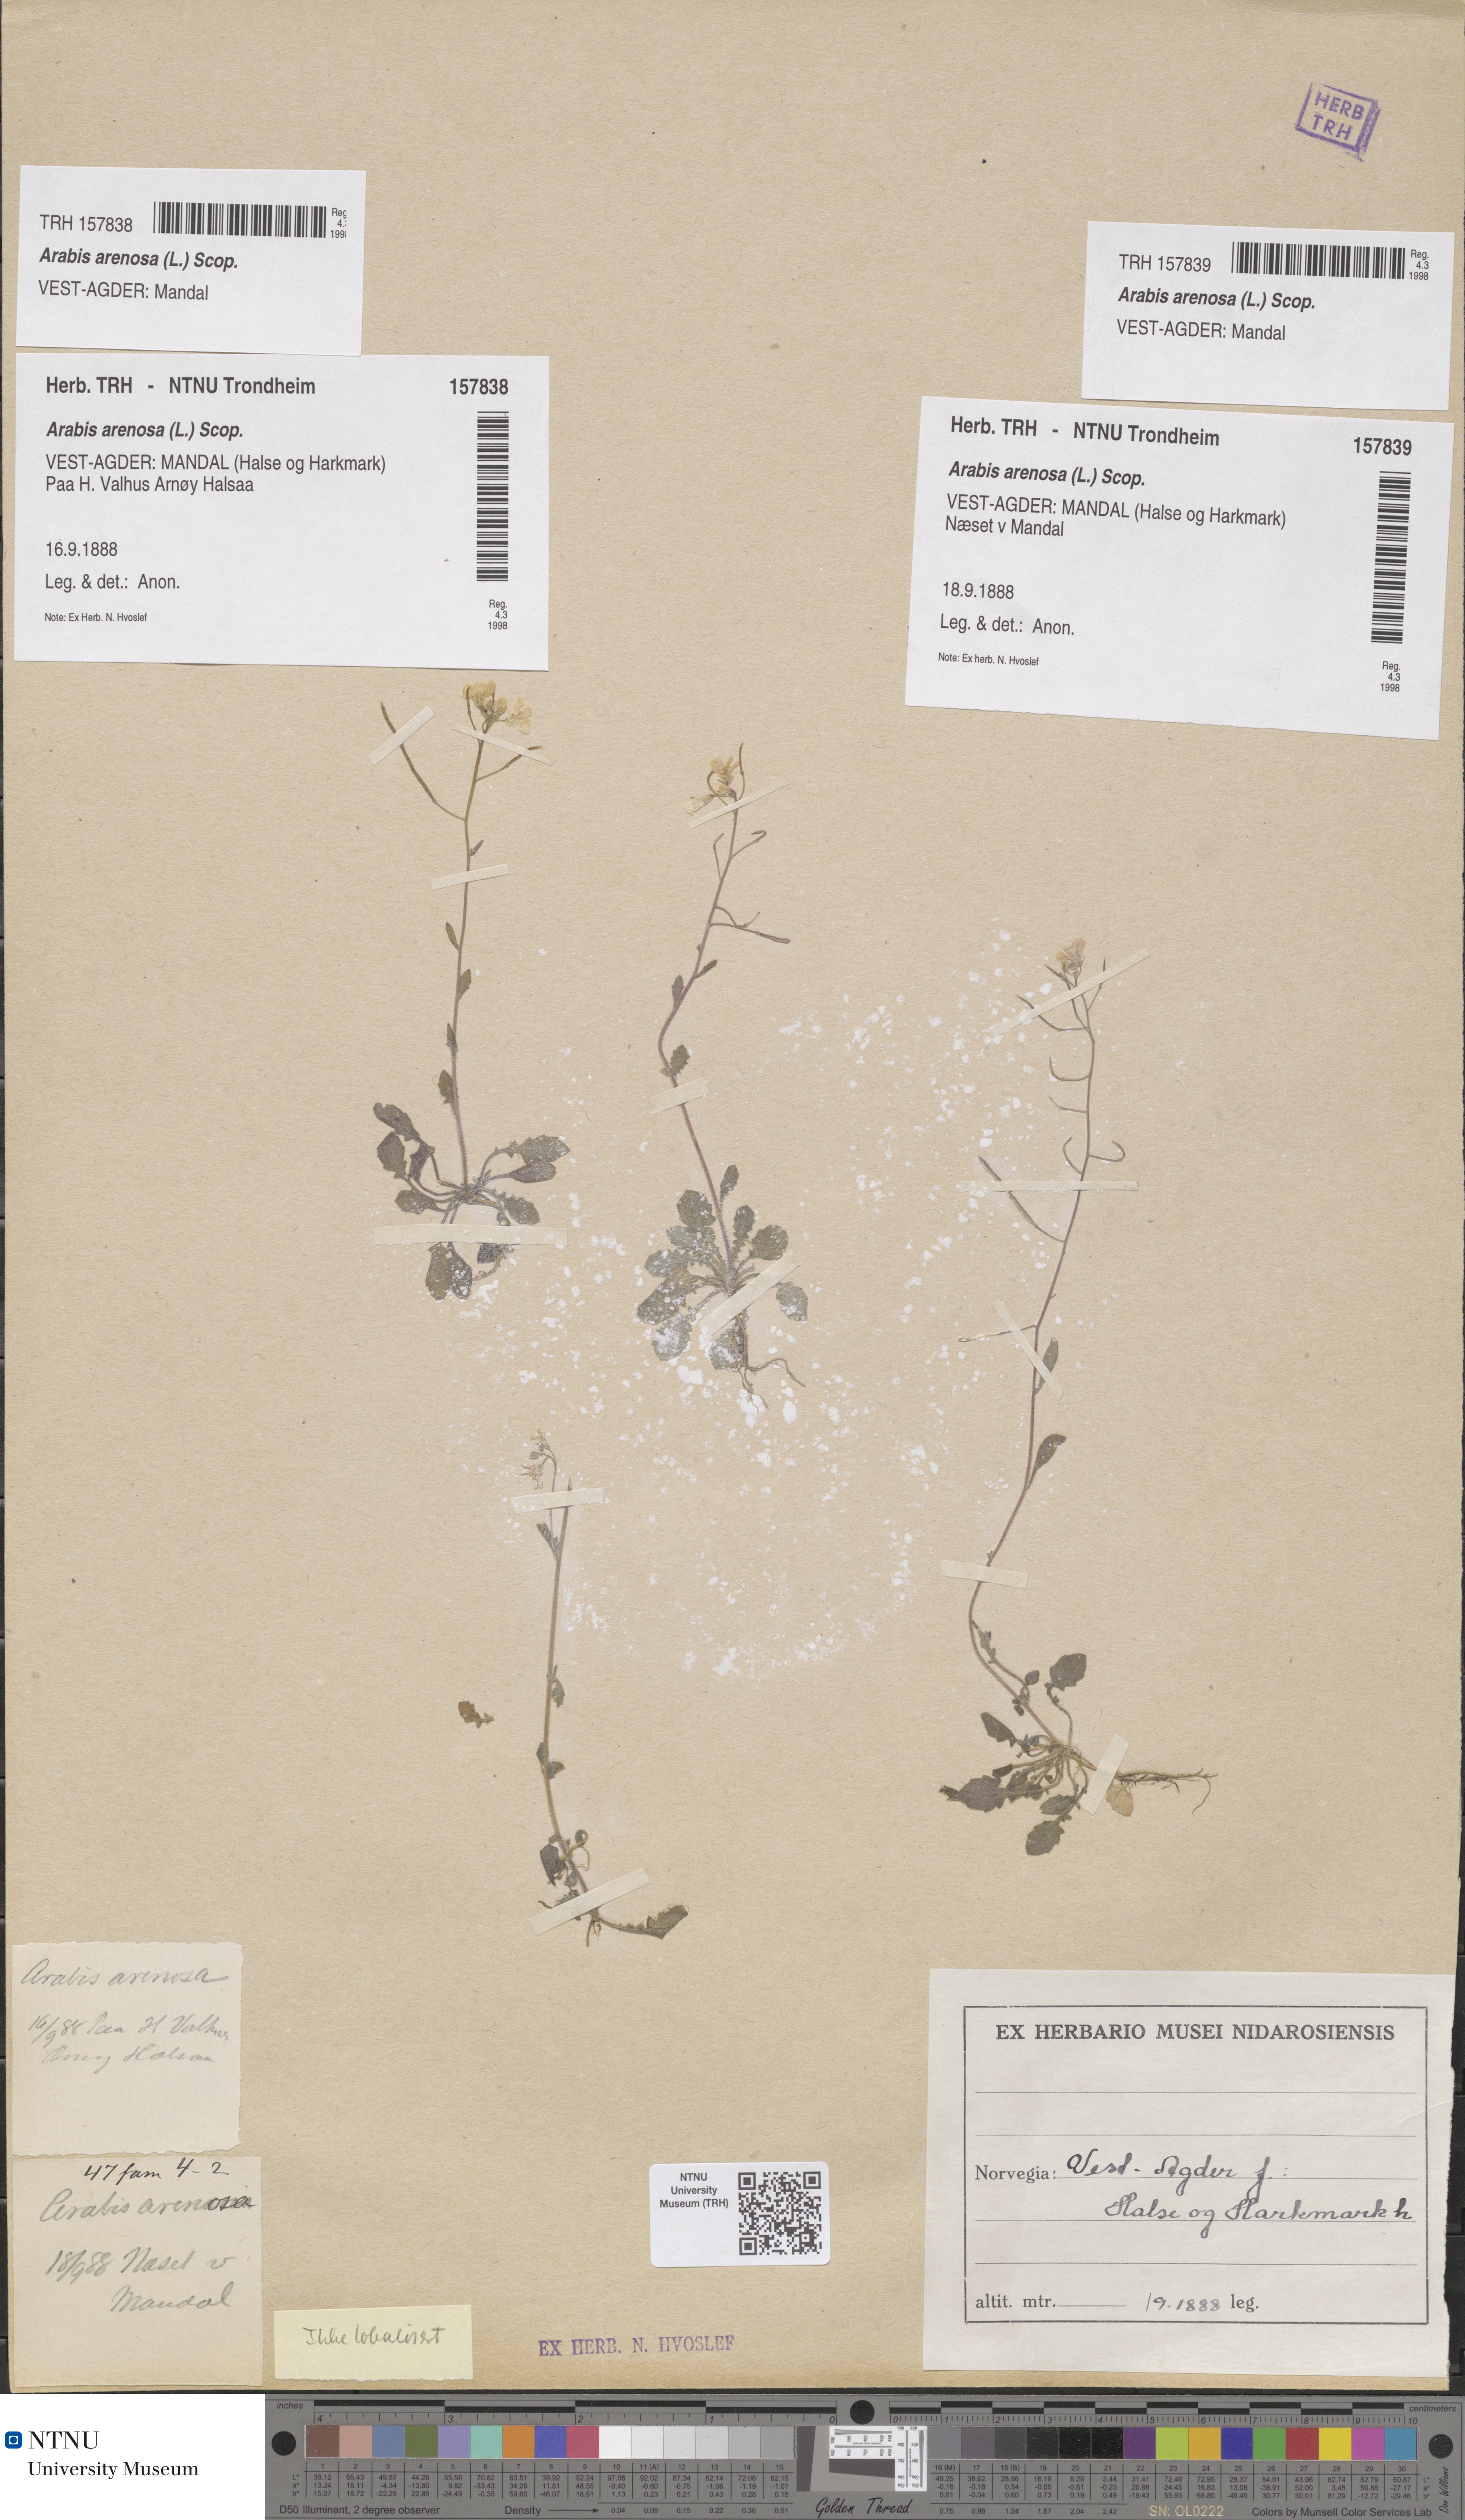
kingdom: Plantae
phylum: Tracheophyta
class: Magnoliopsida
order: Brassicales
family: Brassicaceae
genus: Arabidopsis
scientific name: Arabidopsis arenosa
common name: Sand rock-cress
